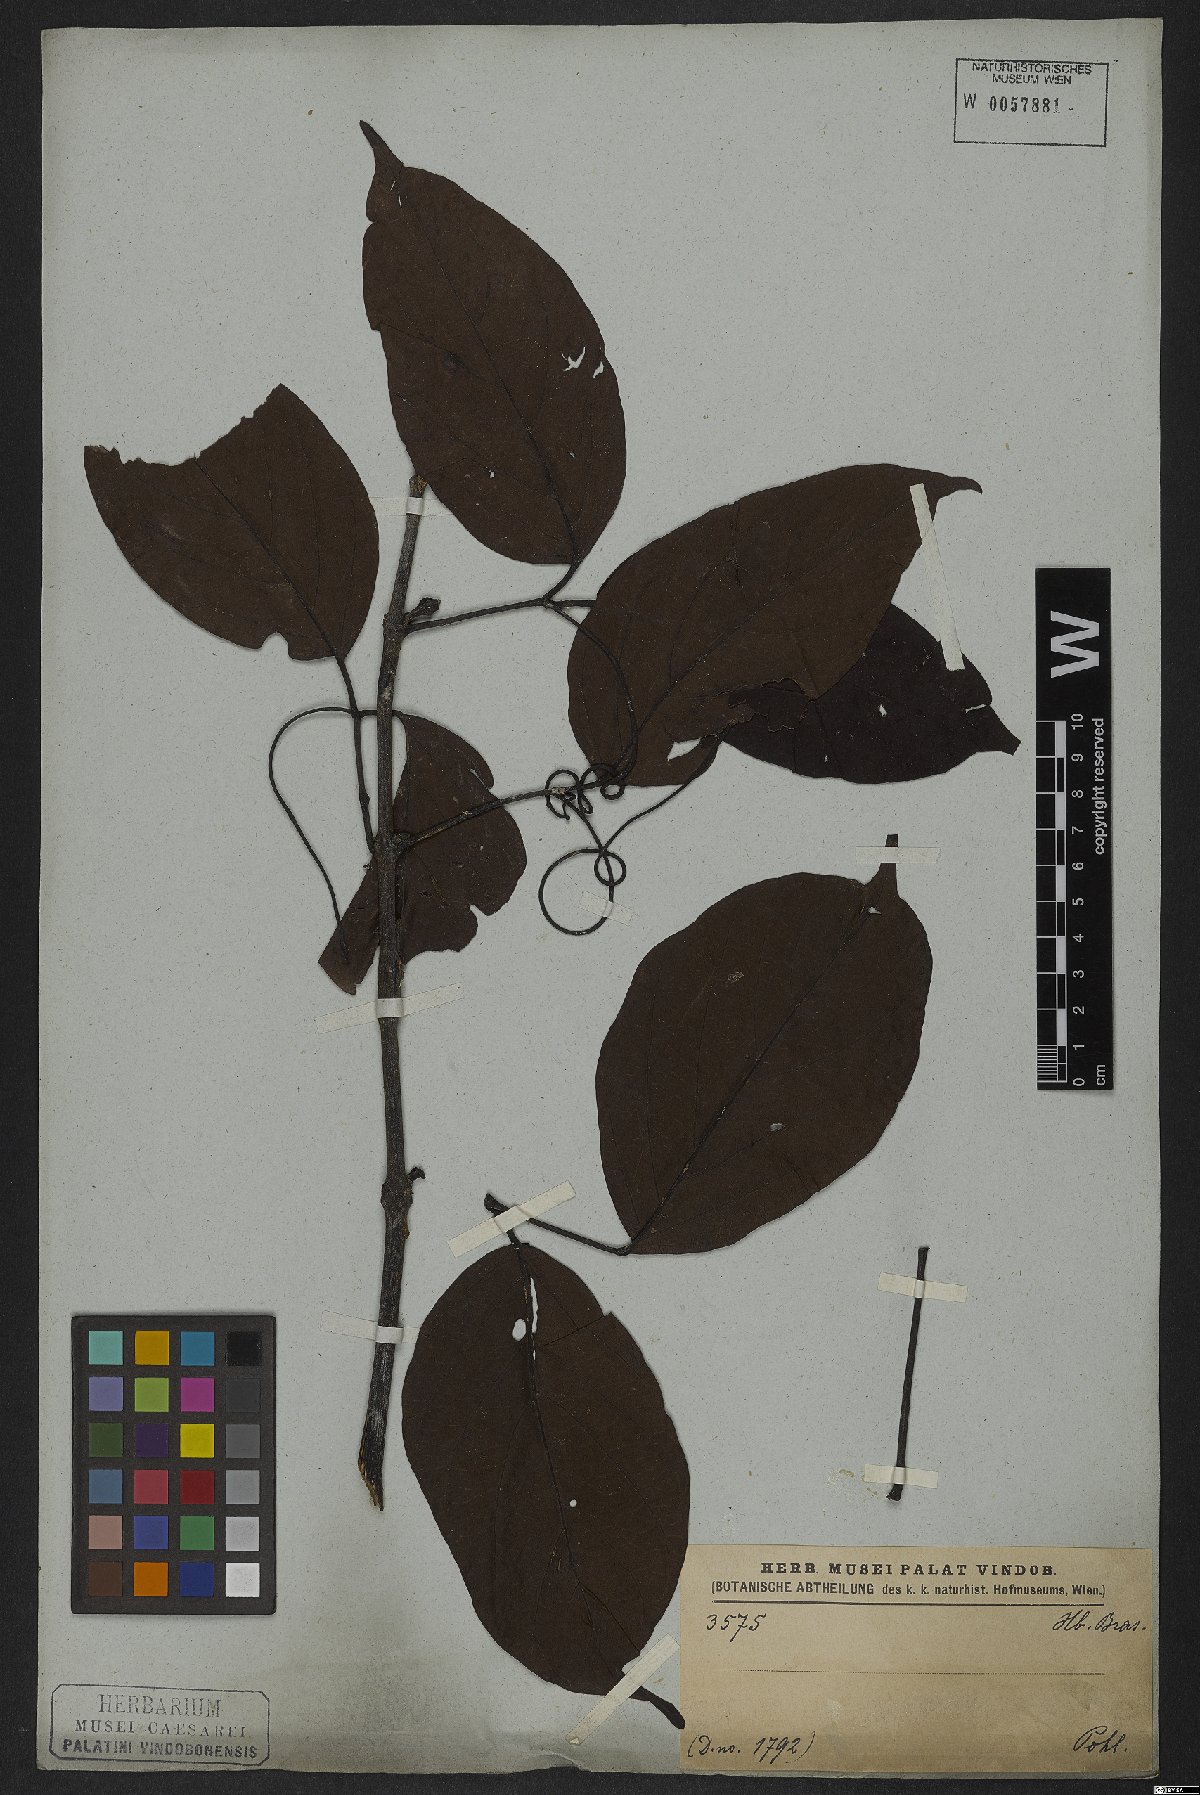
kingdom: Plantae
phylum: Tracheophyta
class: Magnoliopsida
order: Lamiales
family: Bignoniaceae
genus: Fridericia
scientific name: Fridericia speciosa
